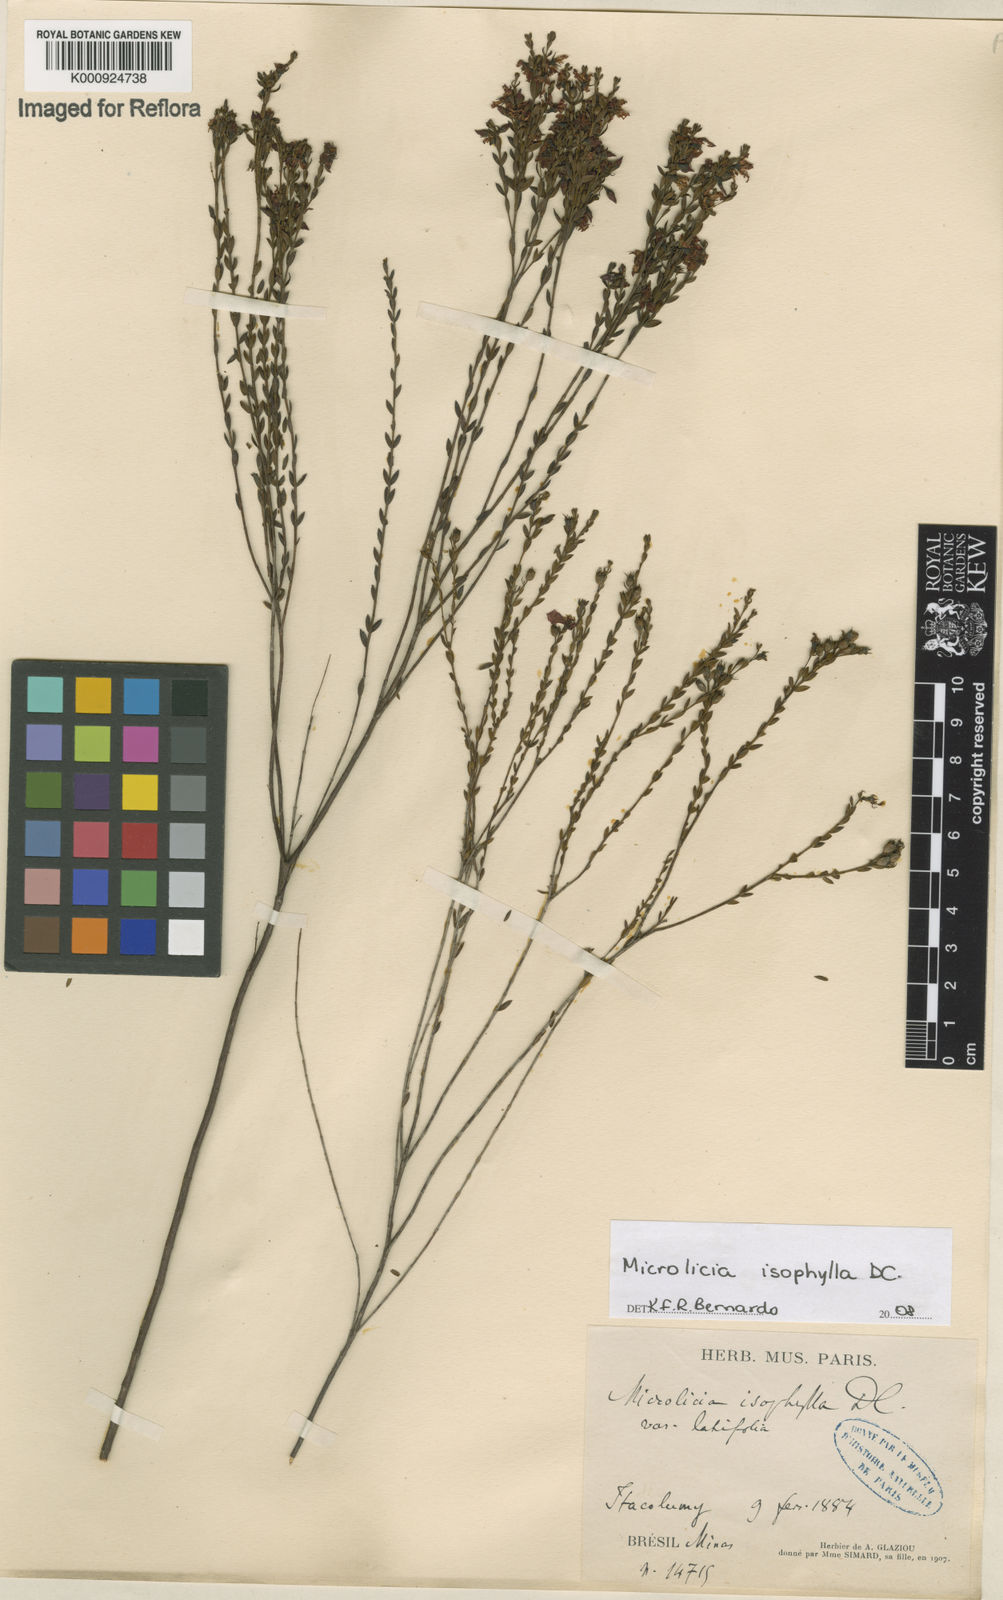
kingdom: Plantae
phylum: Tracheophyta
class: Magnoliopsida
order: Myrtales
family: Melastomataceae
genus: Microlicia
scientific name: Microlicia isophylla
